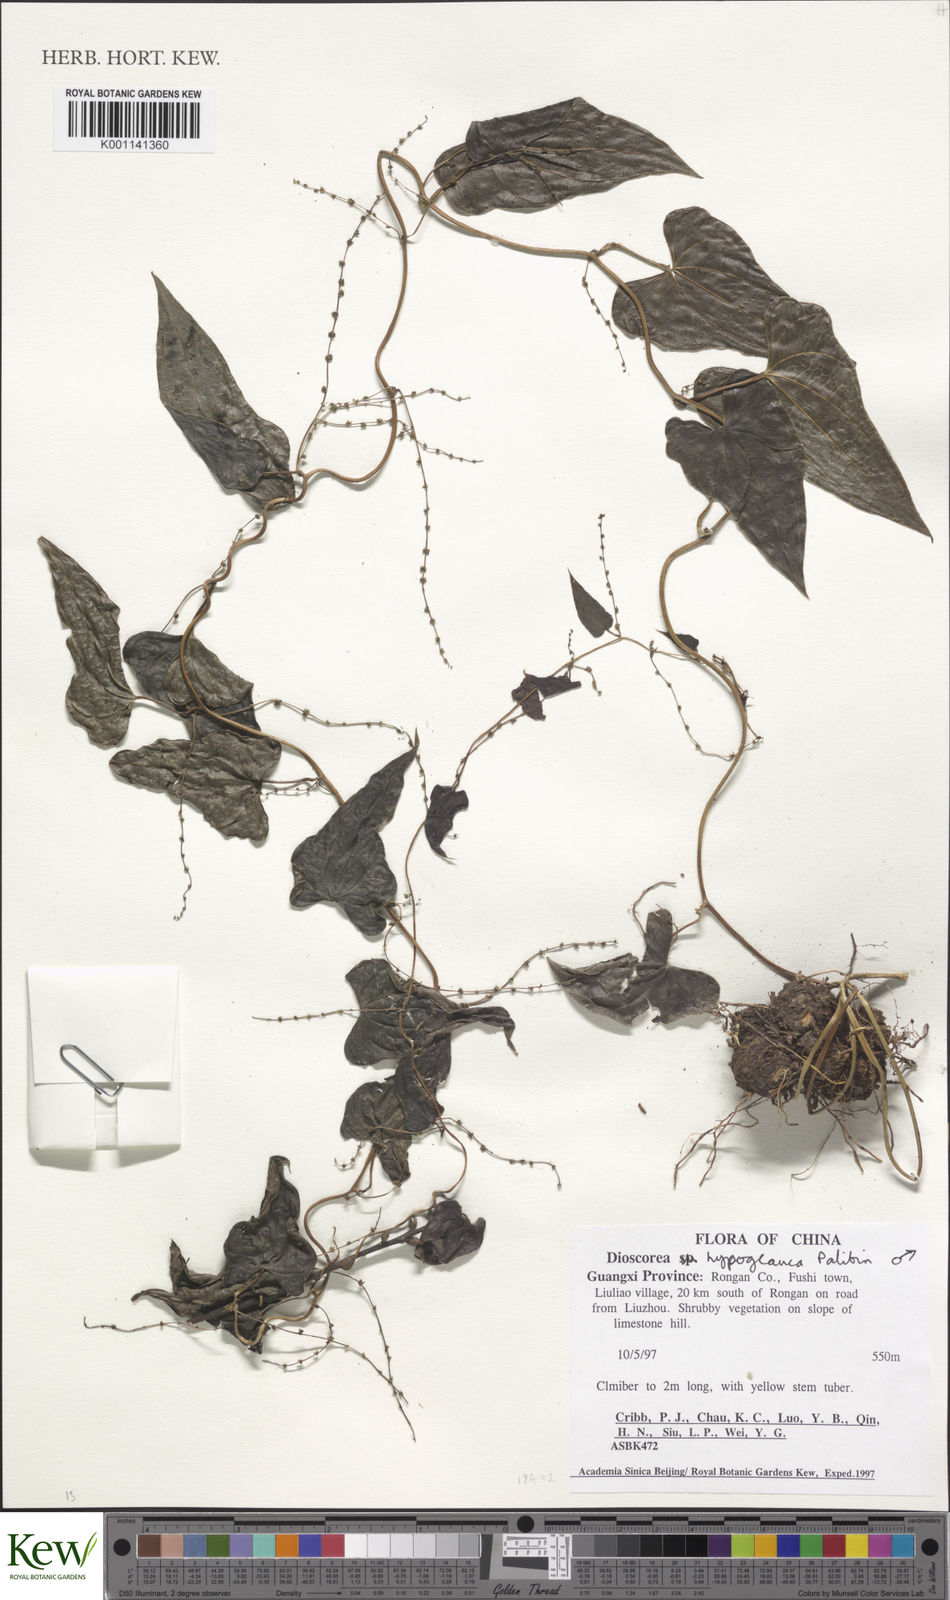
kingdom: Plantae
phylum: Tracheophyta
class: Liliopsida
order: Dioscoreales
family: Dioscoreaceae
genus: Dioscorea
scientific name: Dioscorea collettii
